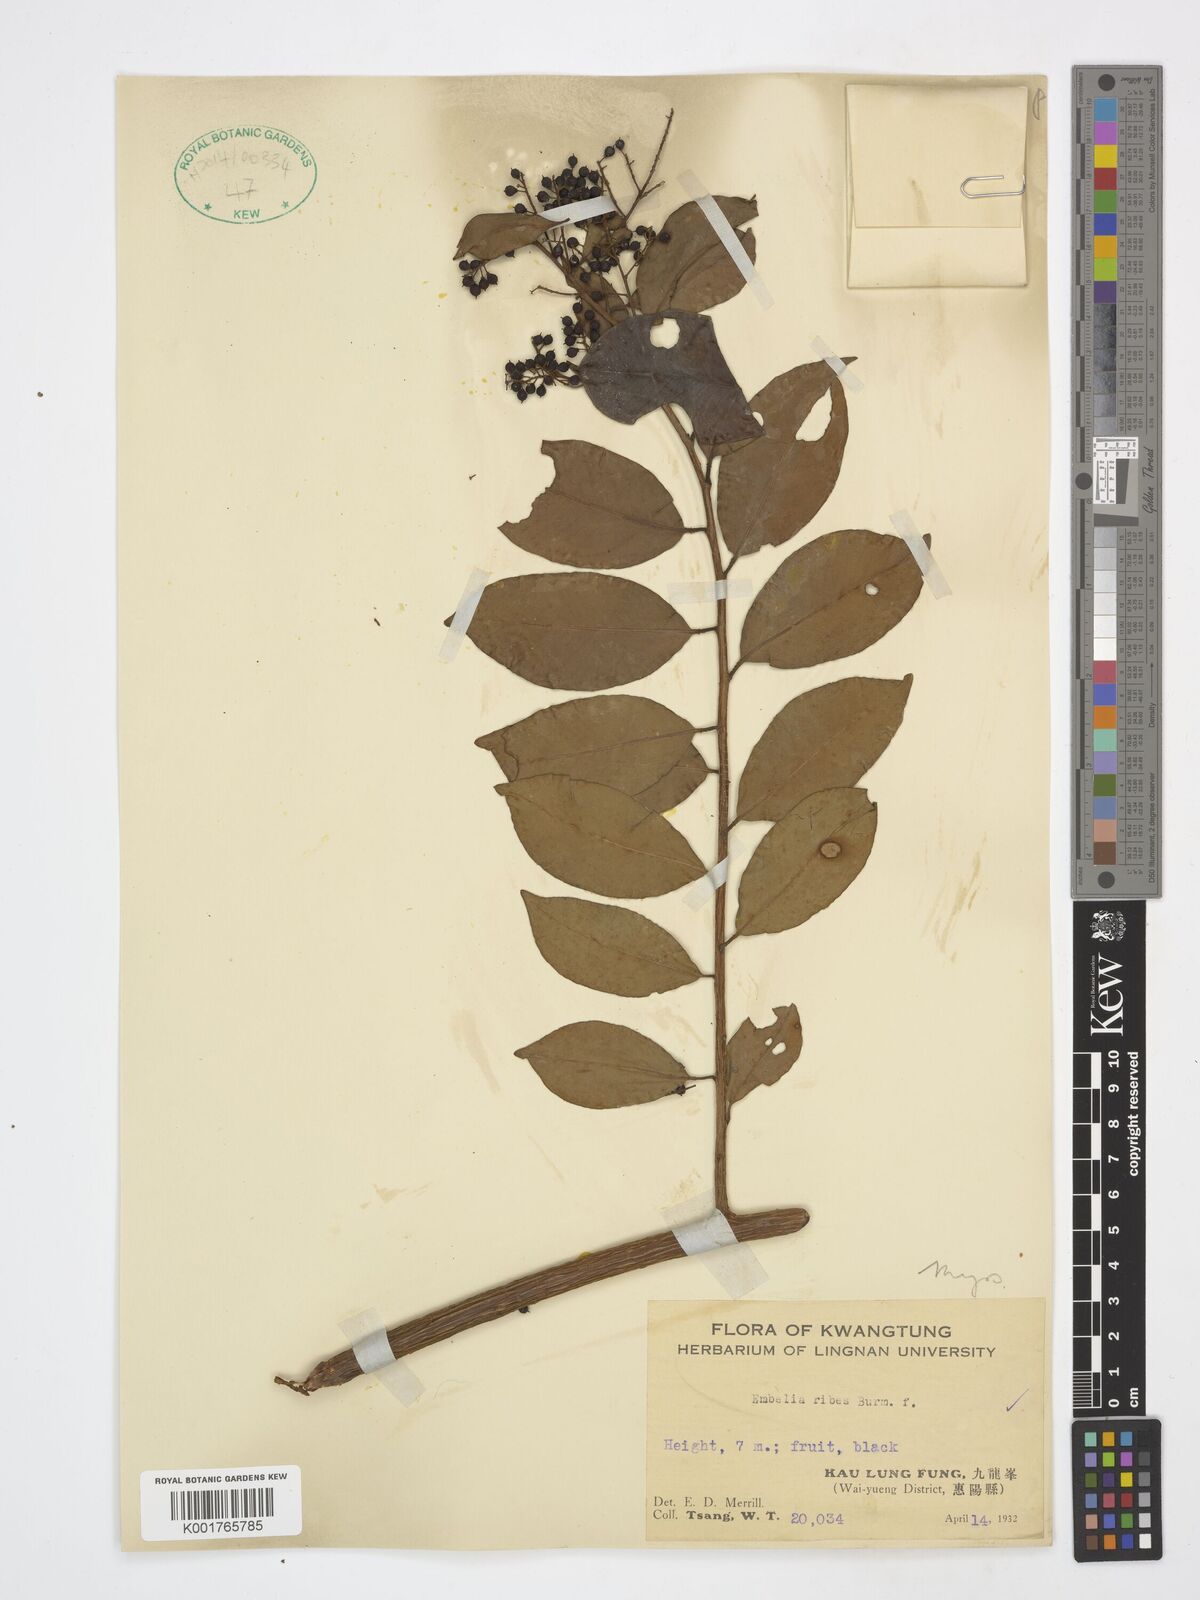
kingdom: Plantae
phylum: Tracheophyta
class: Magnoliopsida
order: Ericales
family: Primulaceae
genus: Embelia
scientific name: Embelia ribes
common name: Vidanga
